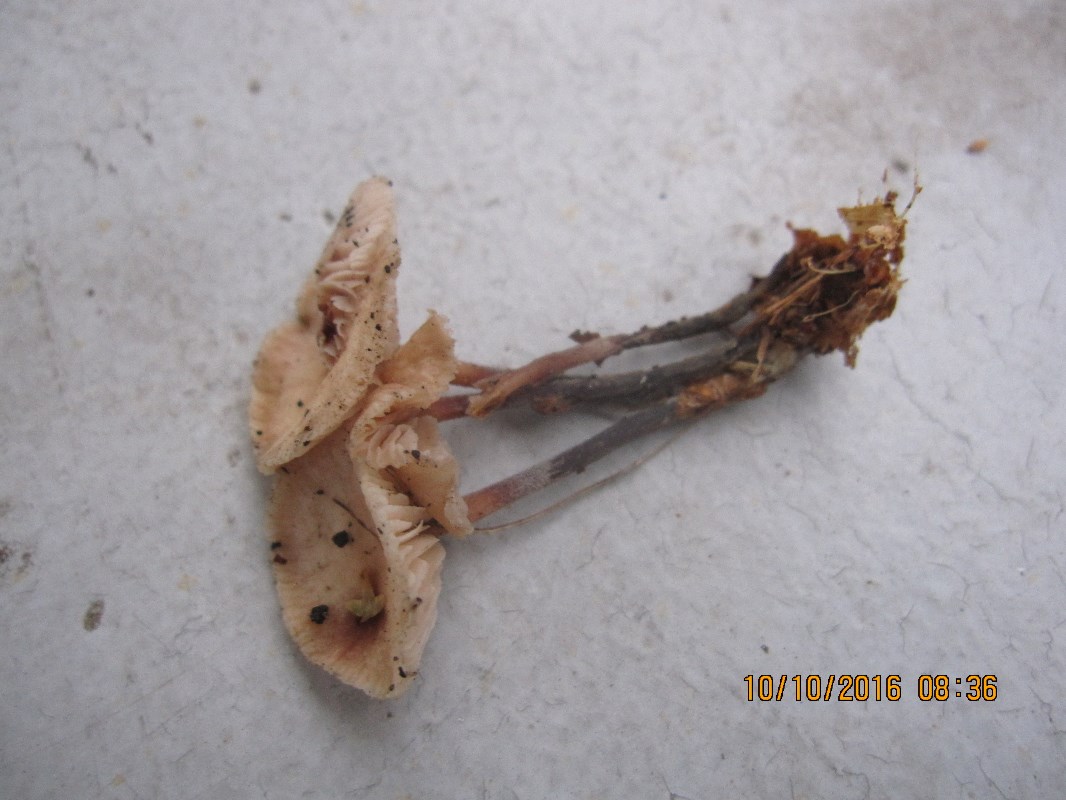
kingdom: Fungi
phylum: Basidiomycota
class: Agaricomycetes
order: Agaricales
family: Omphalotaceae
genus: Gymnopus
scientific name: Gymnopus brassicolens
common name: kål-fladhat
